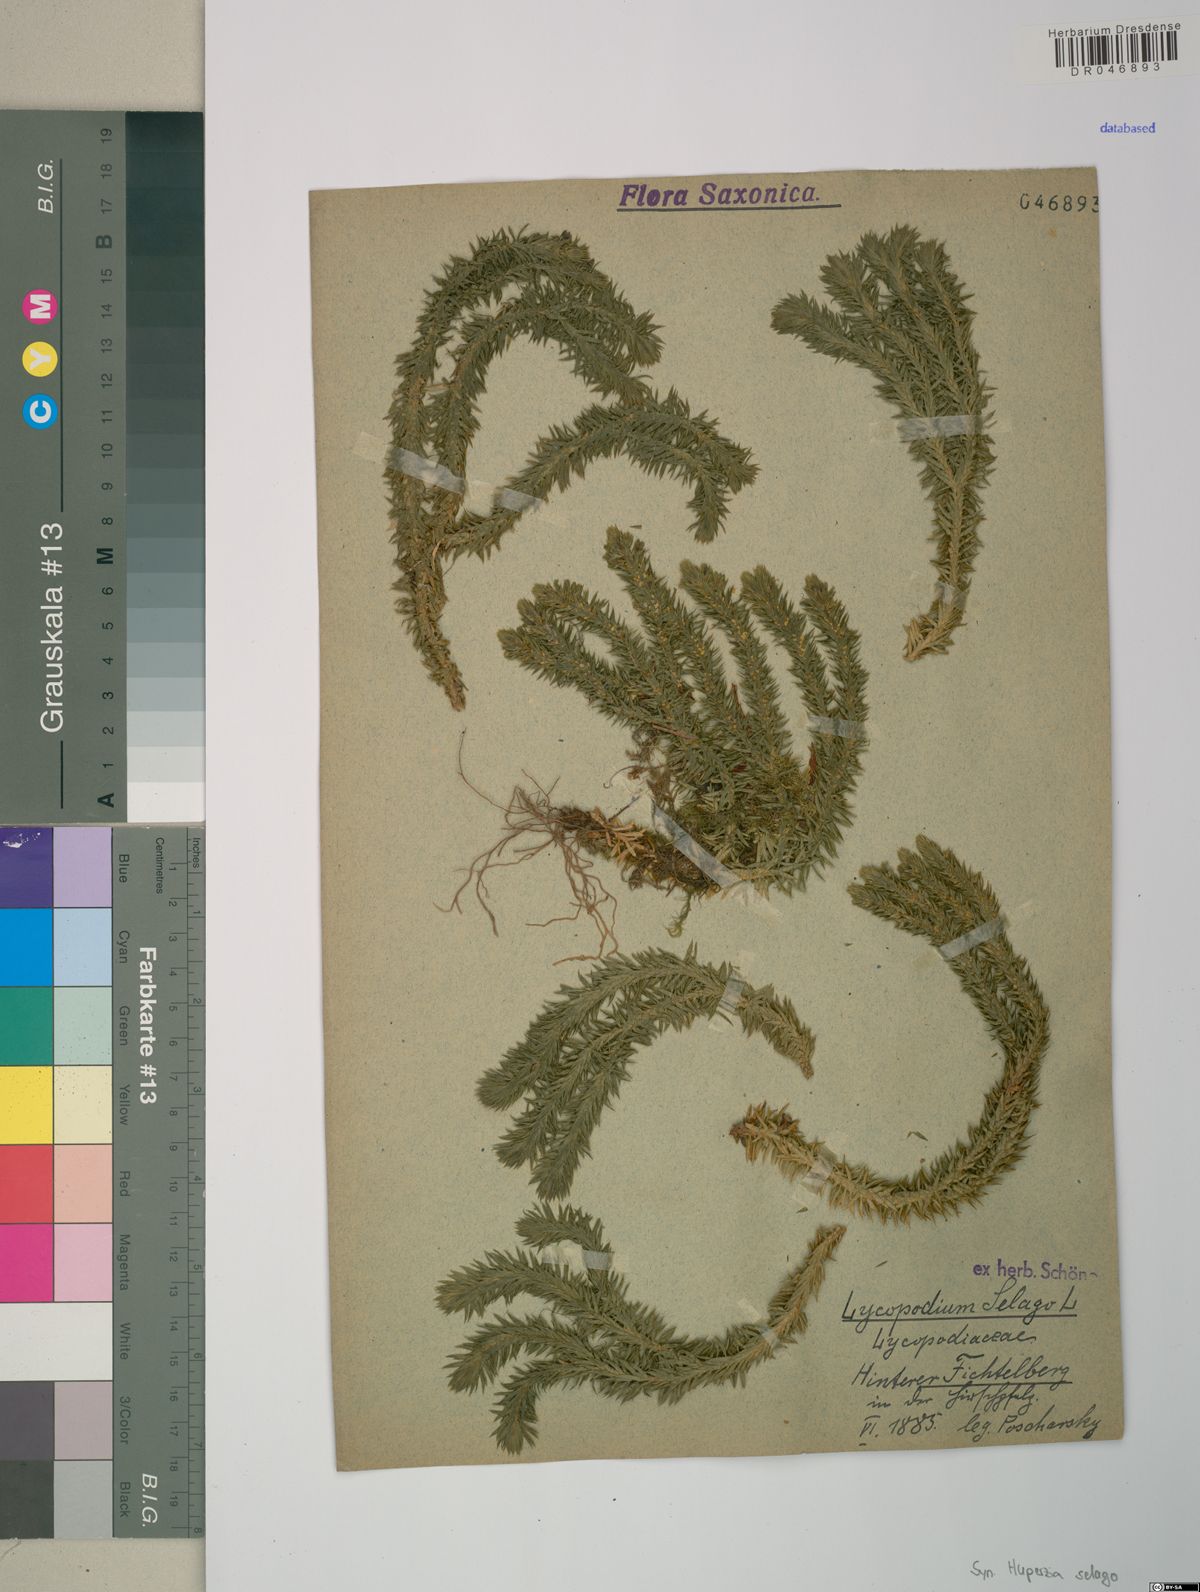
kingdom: Plantae
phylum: Tracheophyta
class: Lycopodiopsida
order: Lycopodiales
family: Lycopodiaceae
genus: Huperzia
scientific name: Huperzia selago
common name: Northern firmoss
